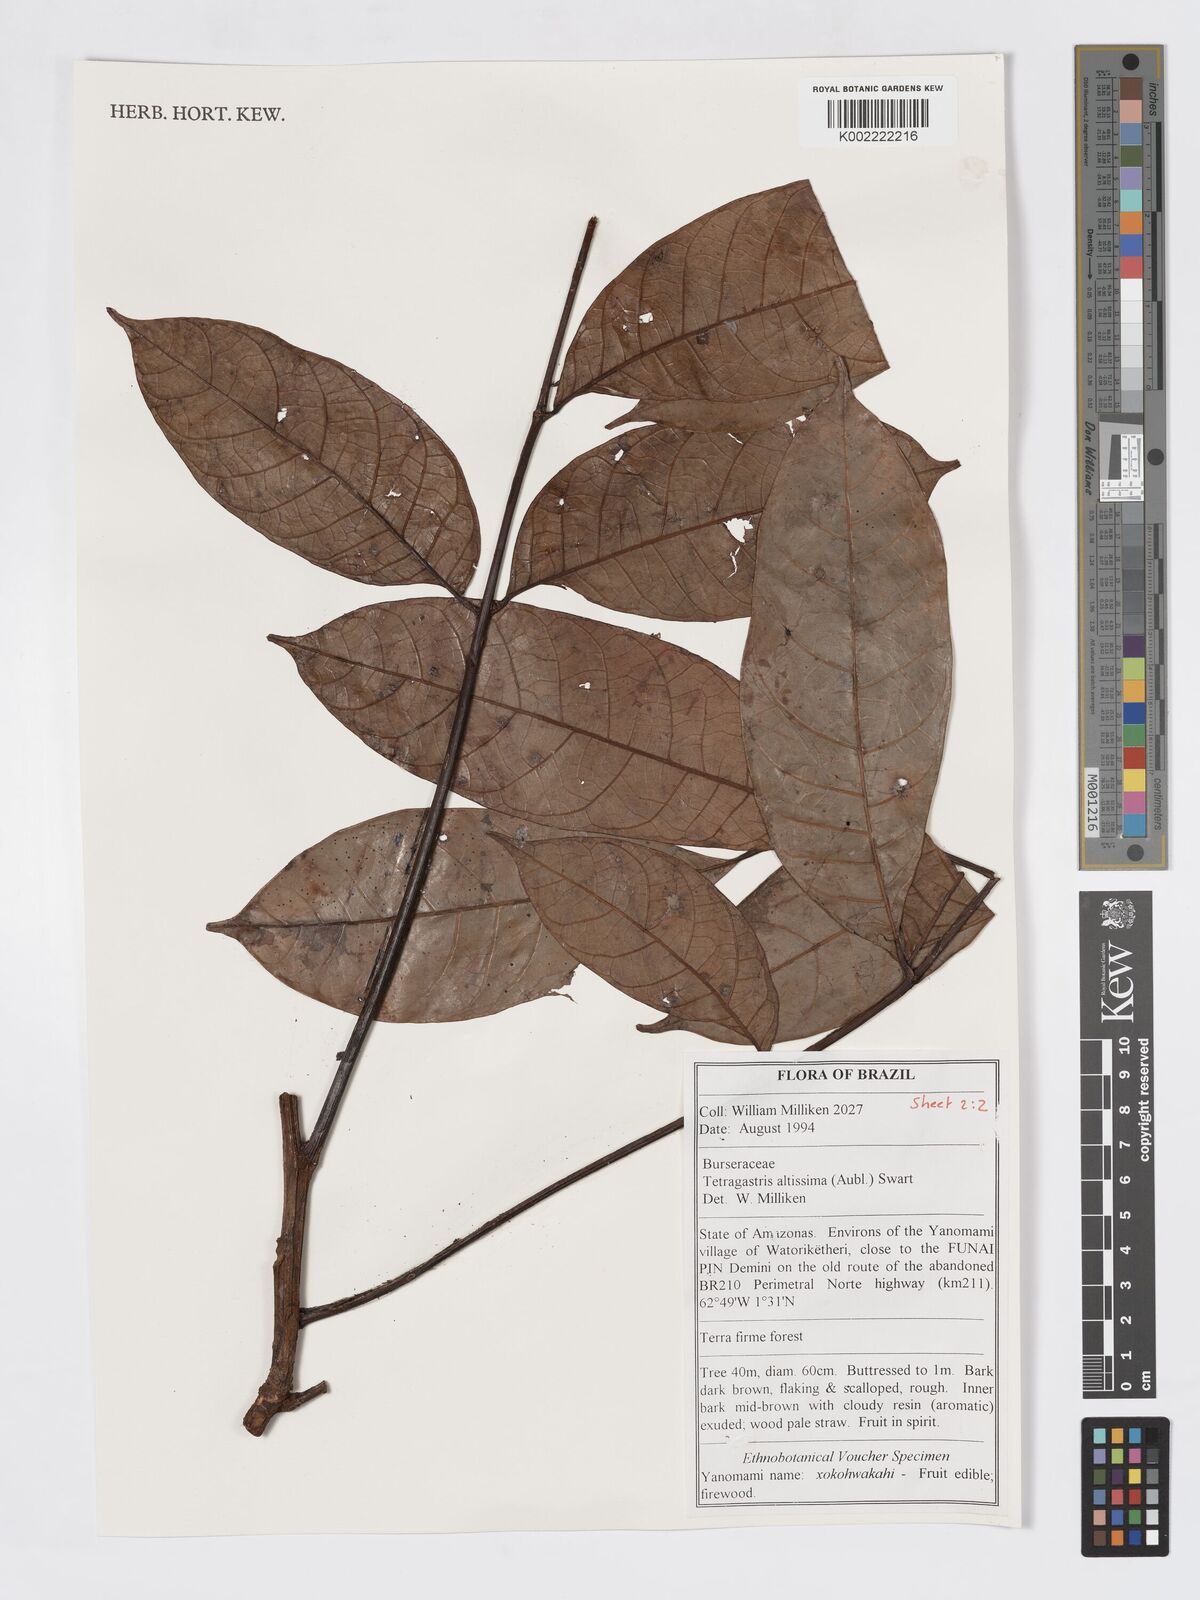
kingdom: Plantae
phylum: Tracheophyta
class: Magnoliopsida
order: Sapindales
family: Burseraceae
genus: Tetragastris
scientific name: Tetragastris altissima
